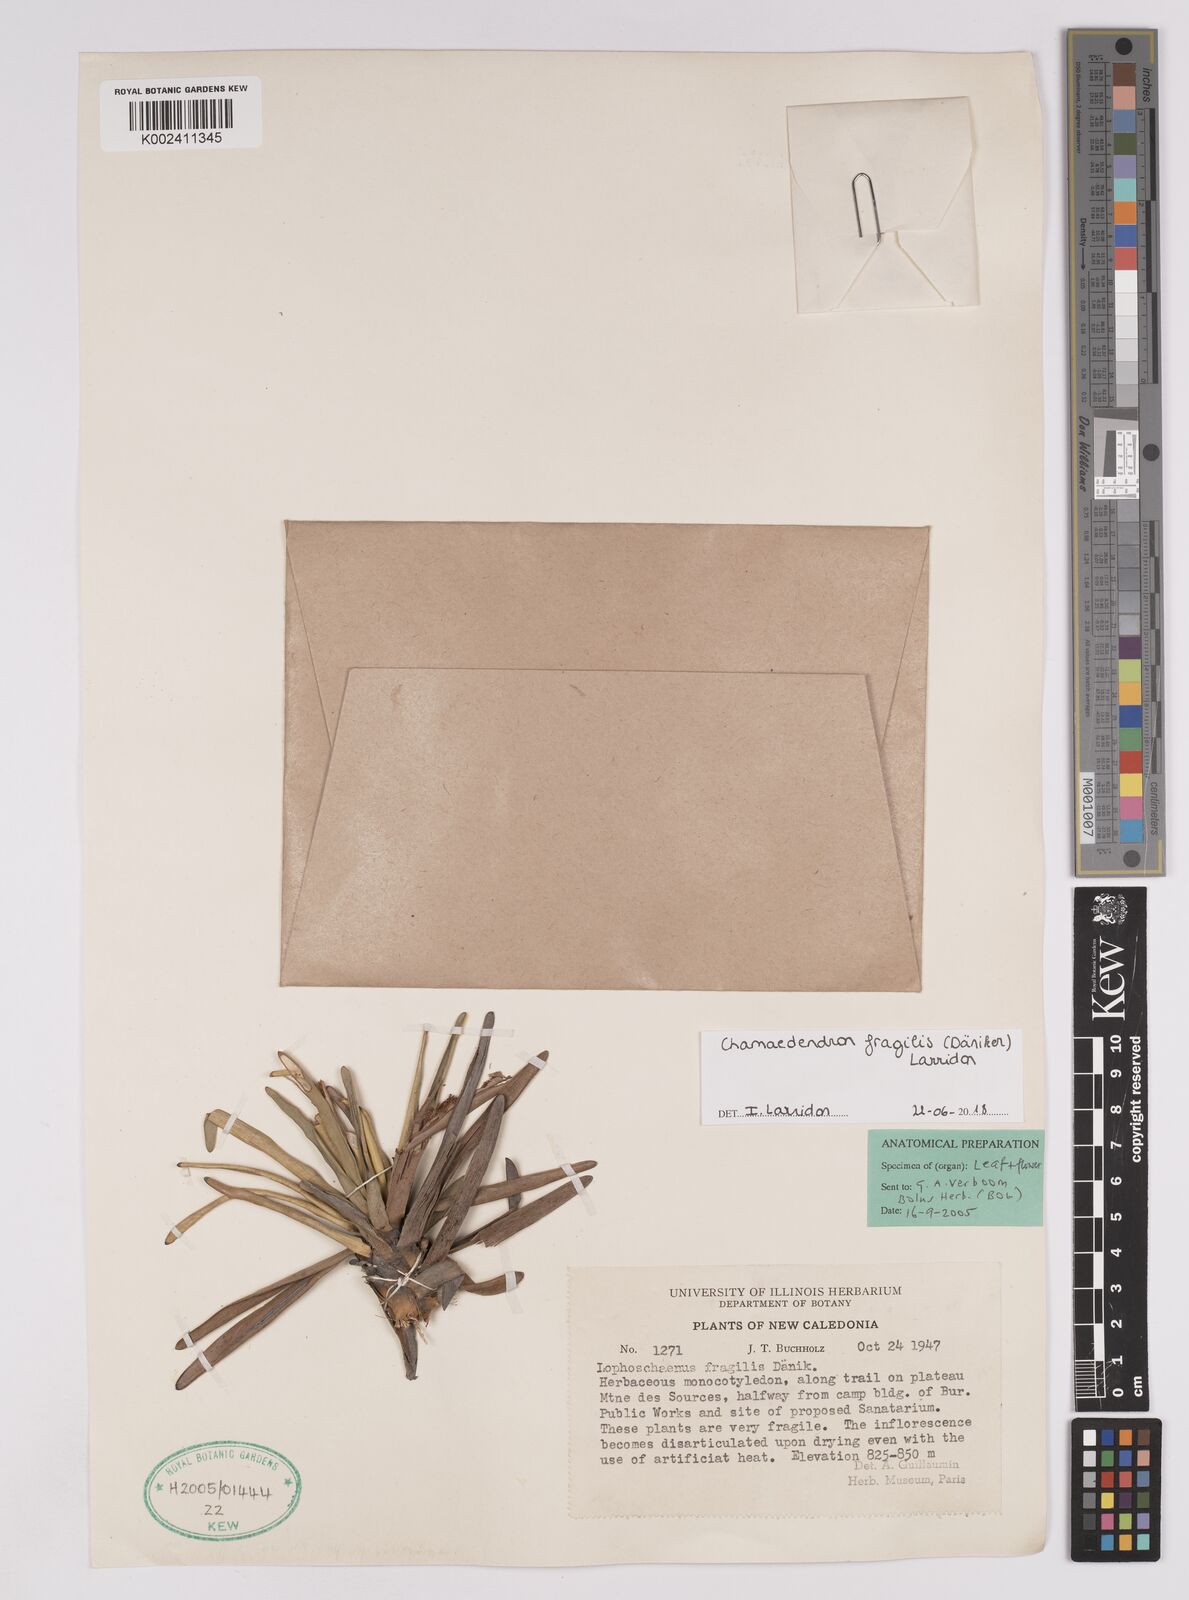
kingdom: Plantae
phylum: Tracheophyta
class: Liliopsida
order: Poales
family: Cyperaceae
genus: Chamaedendron
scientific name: Chamaedendron fragilis
